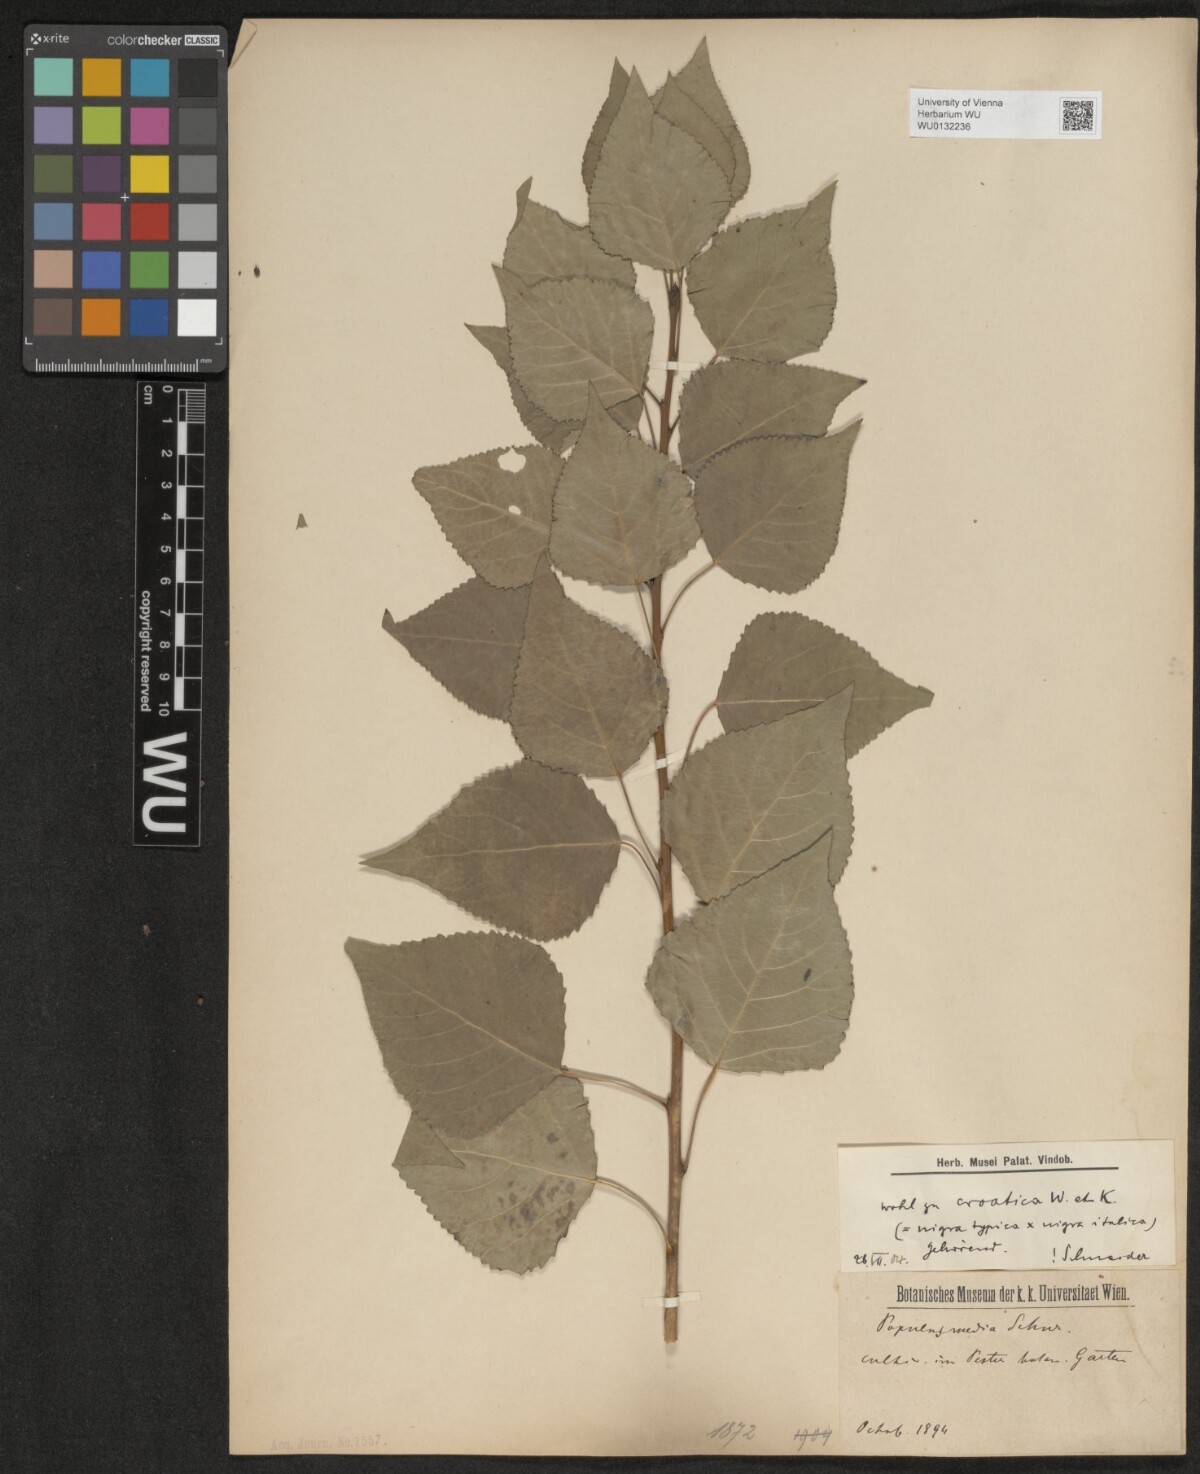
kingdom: Plantae
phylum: Tracheophyta
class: Magnoliopsida
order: Malpighiales
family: Salicaceae
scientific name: Salicaceae
